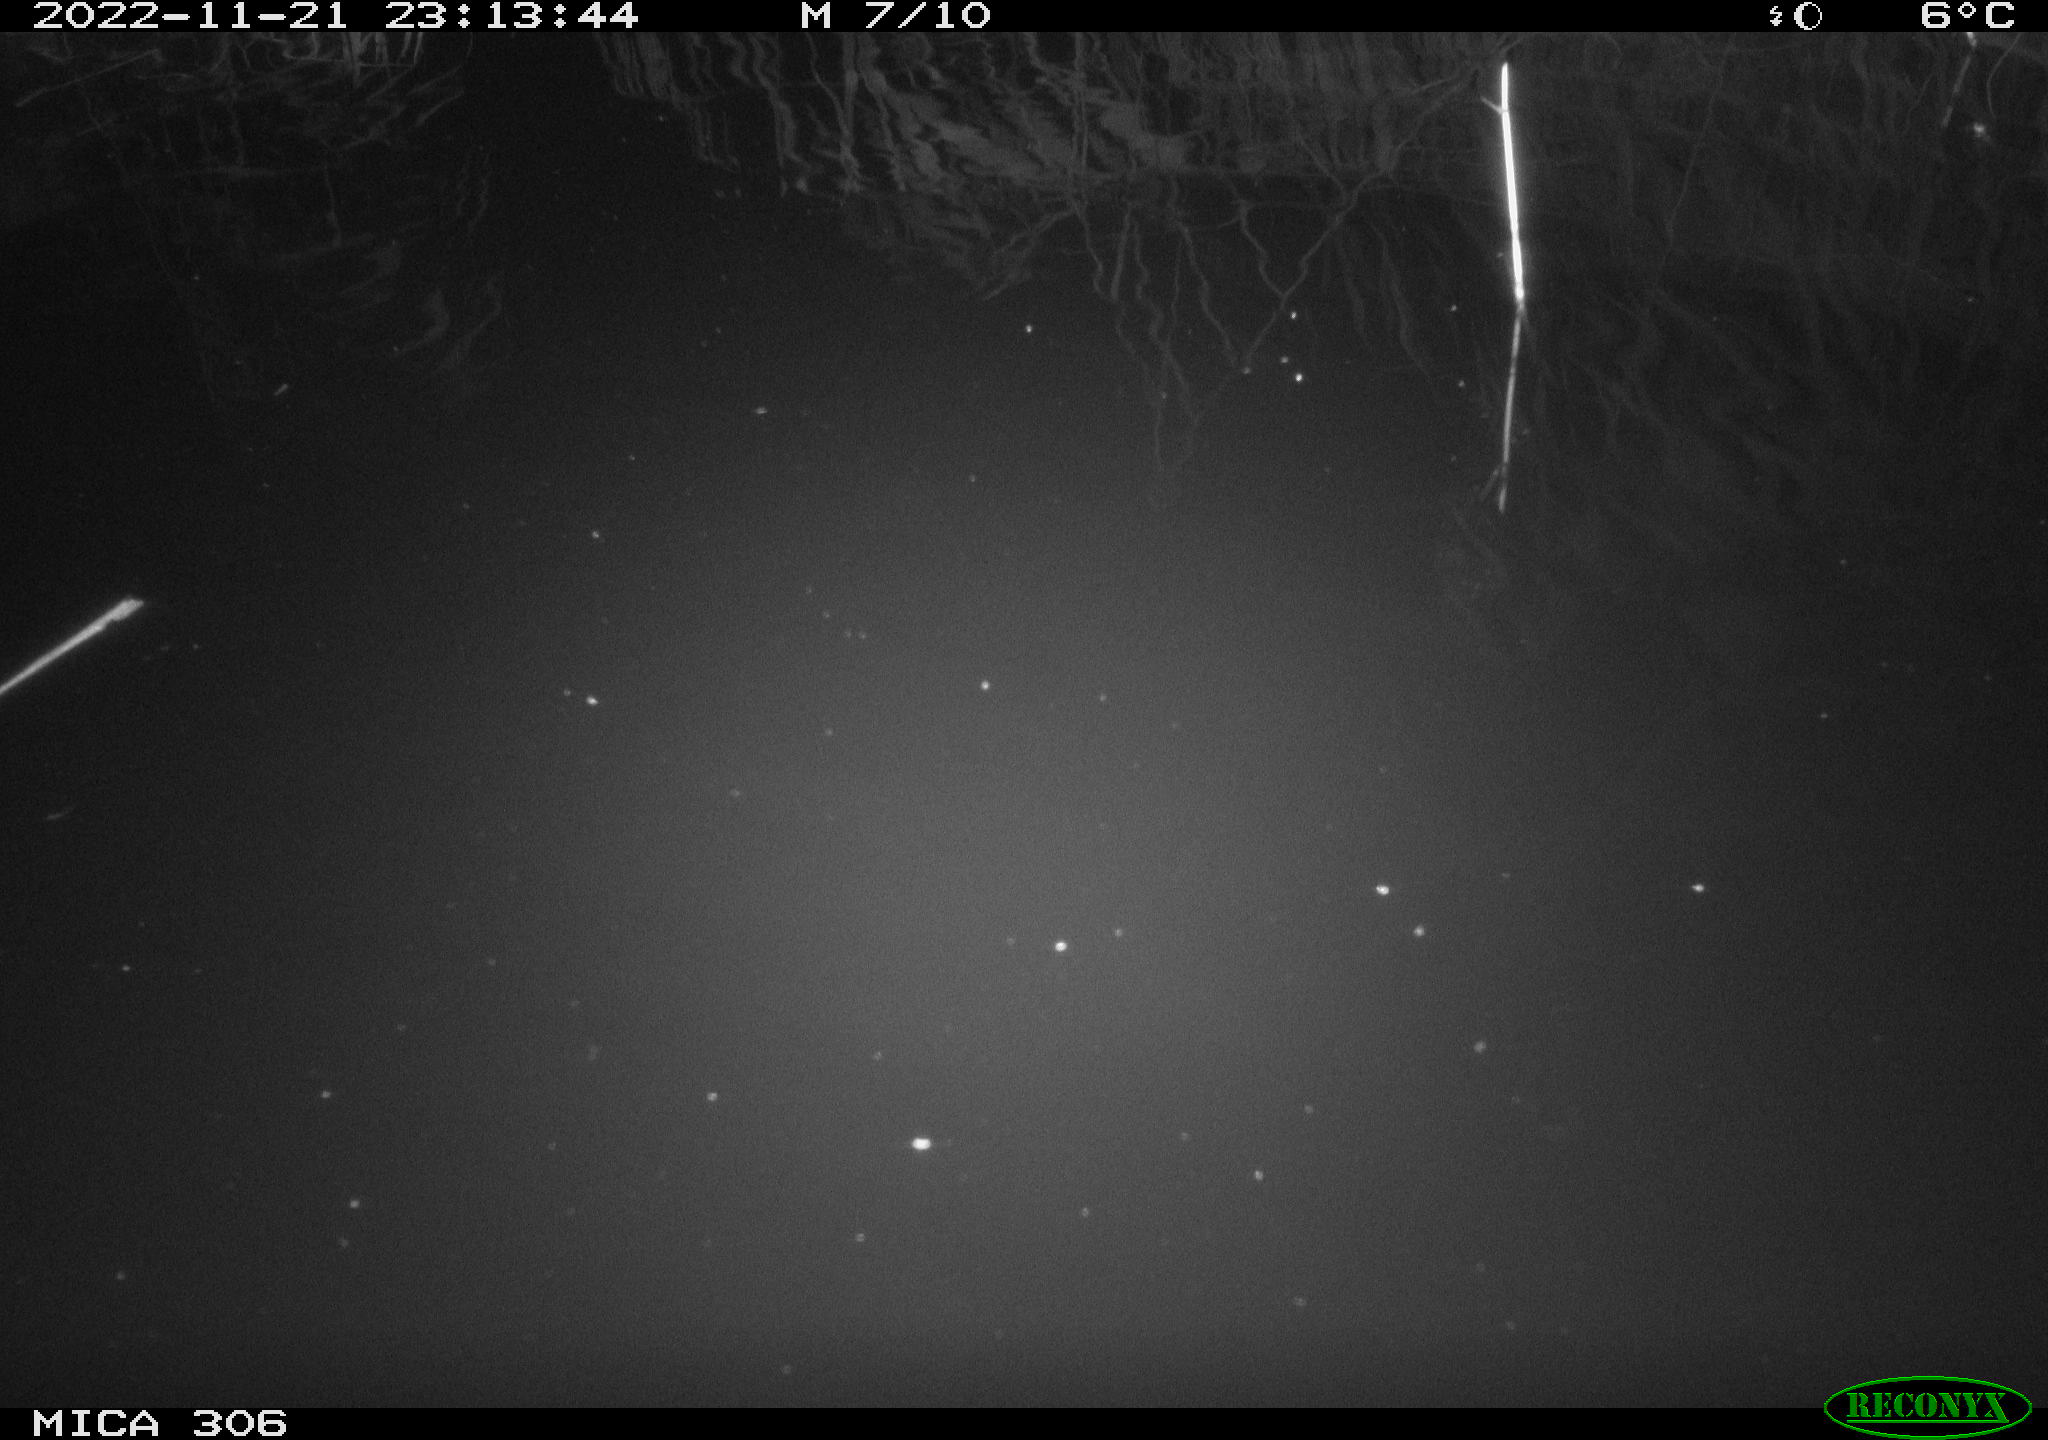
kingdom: Animalia
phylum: Chordata
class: Mammalia
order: Rodentia
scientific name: Rodentia
